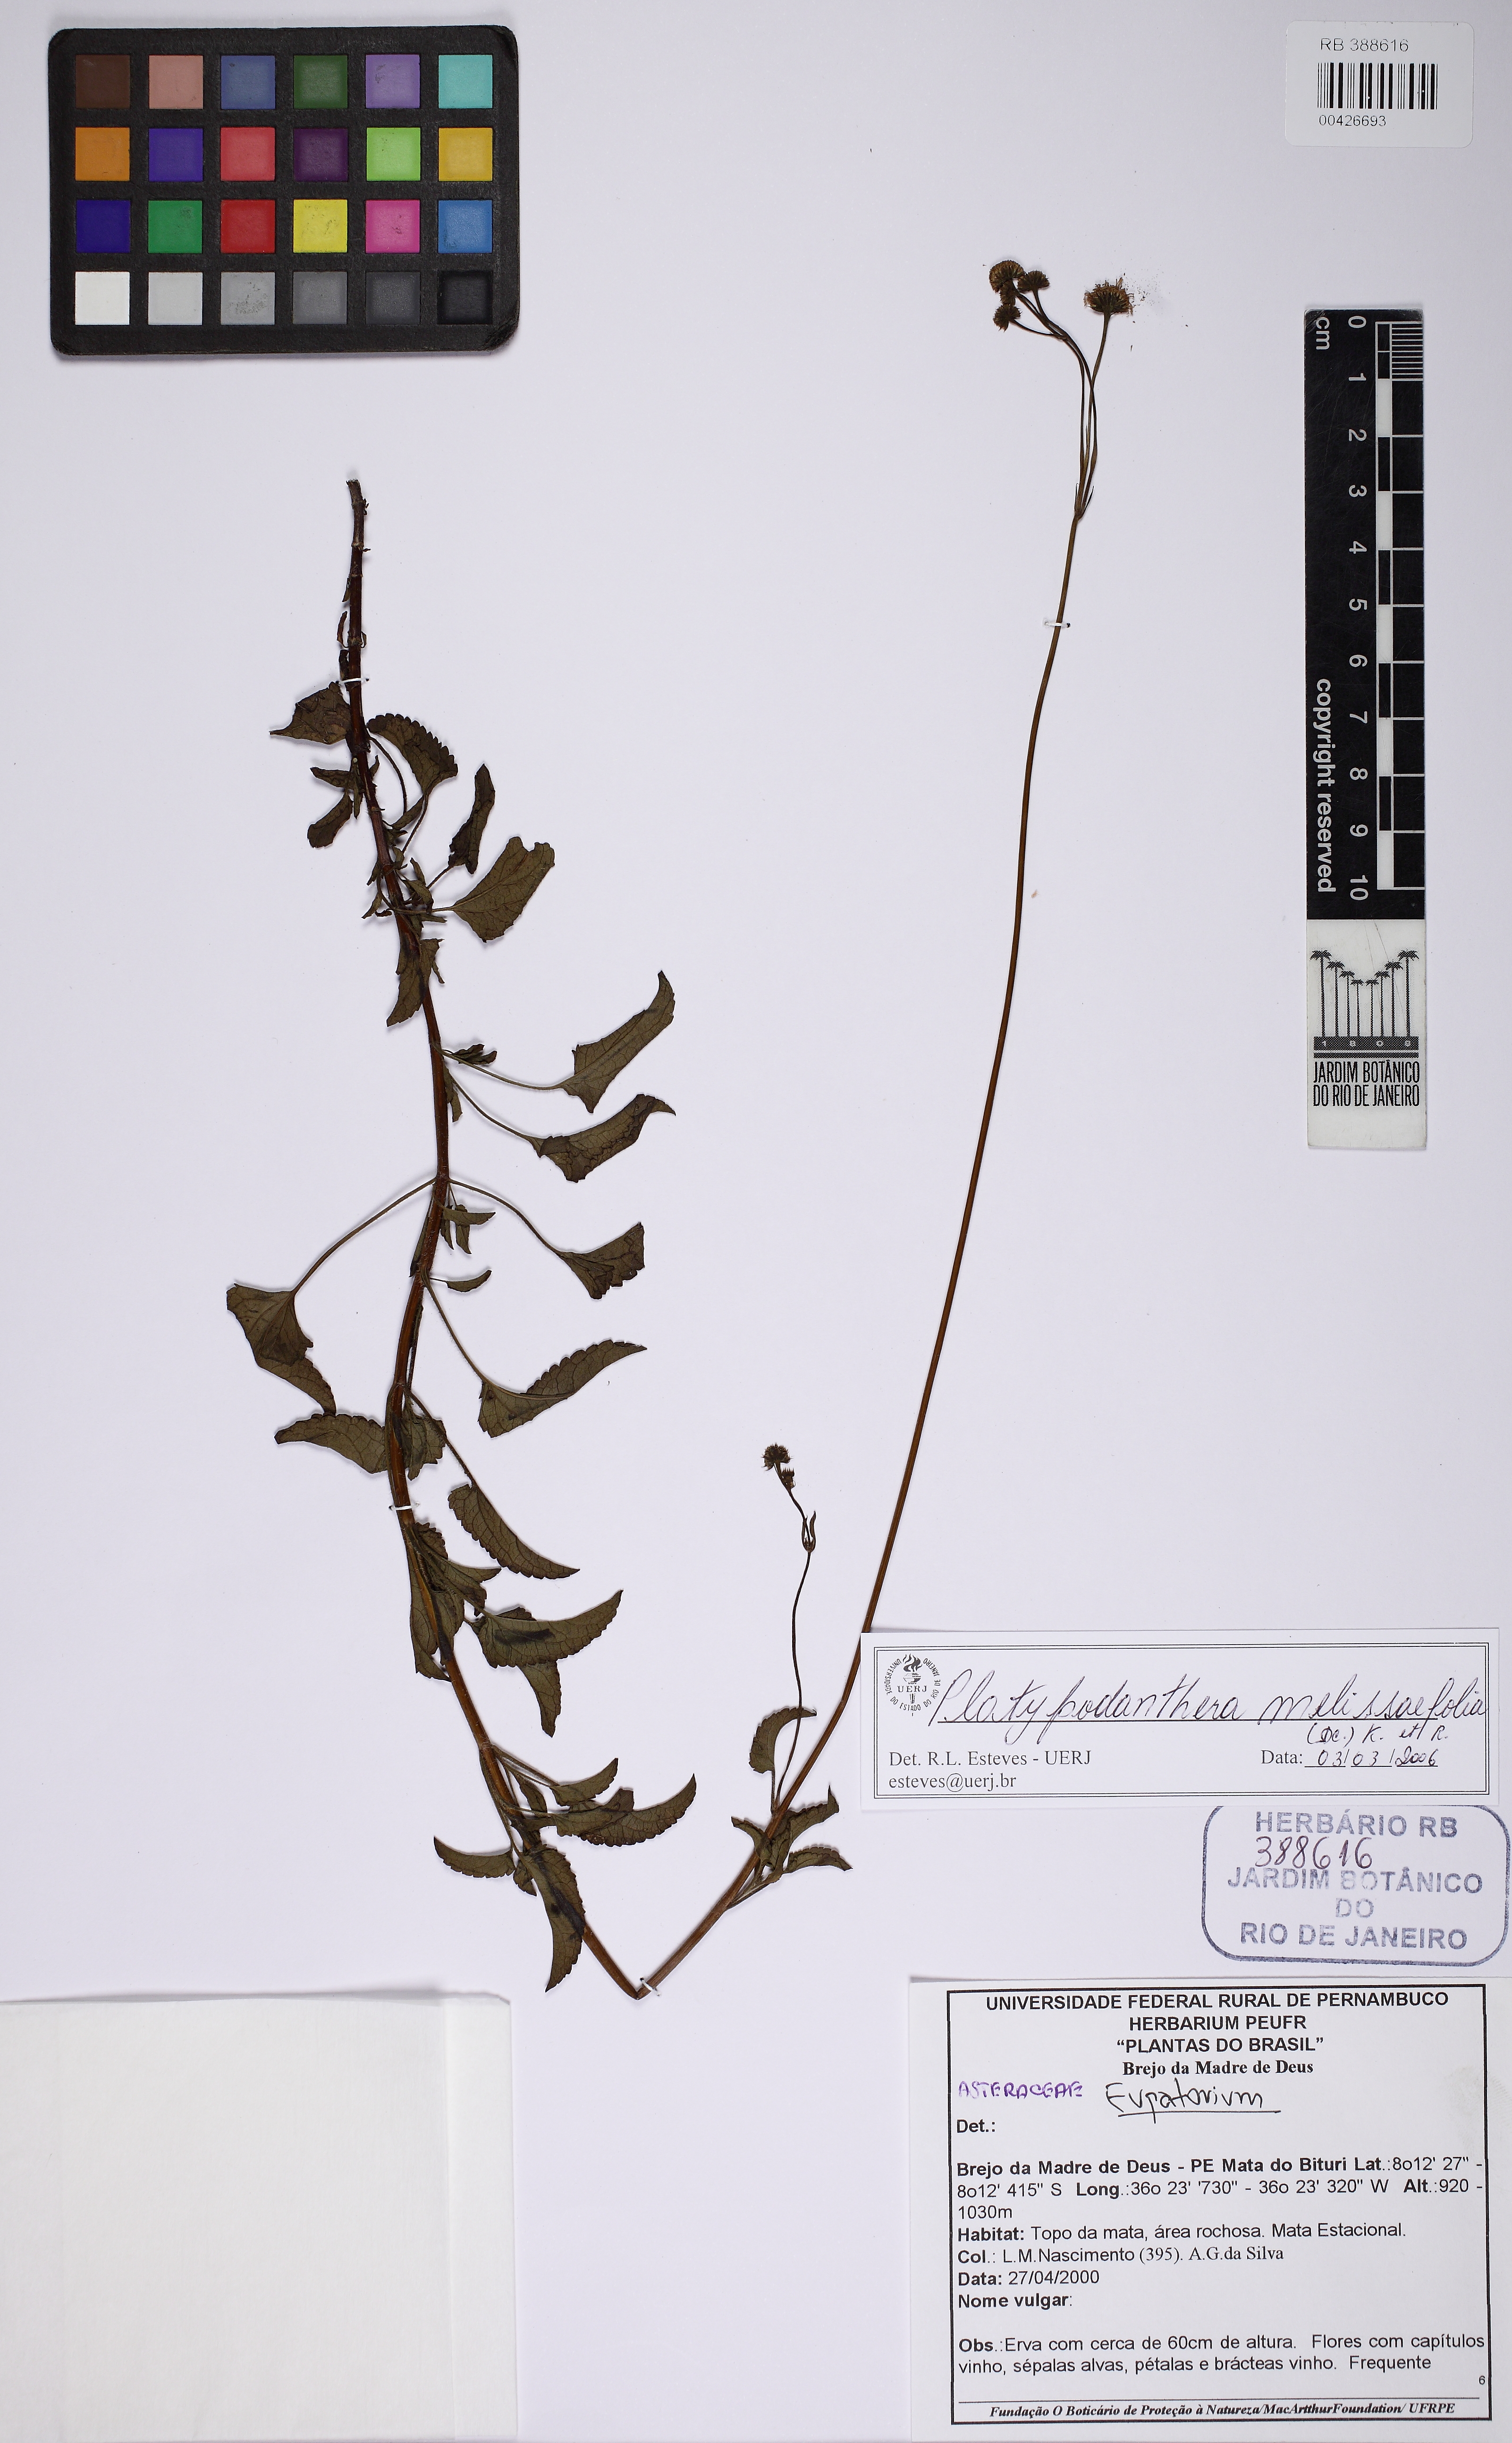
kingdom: Plantae
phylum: Tracheophyta
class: Magnoliopsida
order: Asterales
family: Asteraceae
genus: Platypodanthera
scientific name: Platypodanthera melissifolia
